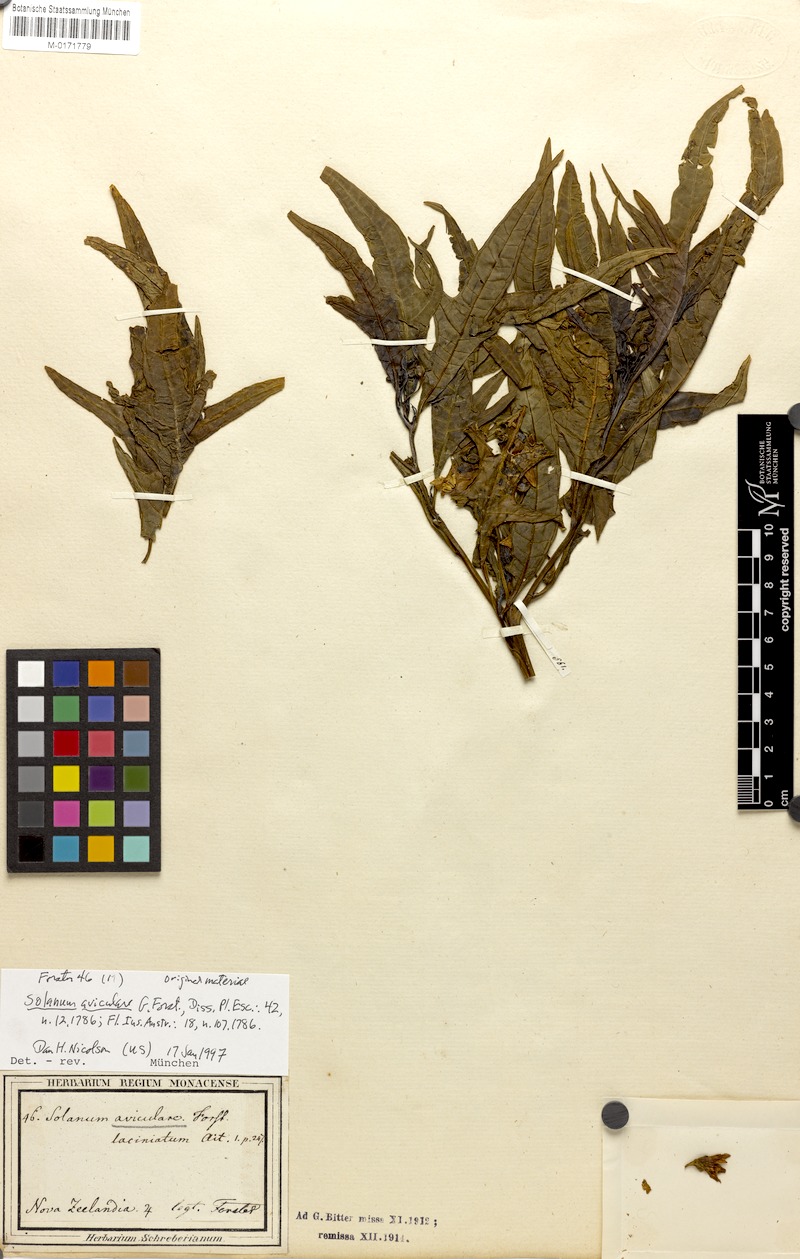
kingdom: Plantae
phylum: Tracheophyta
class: Magnoliopsida
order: Solanales
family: Solanaceae
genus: Solanum
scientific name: Solanum aviculare
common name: New zealand nightshade
